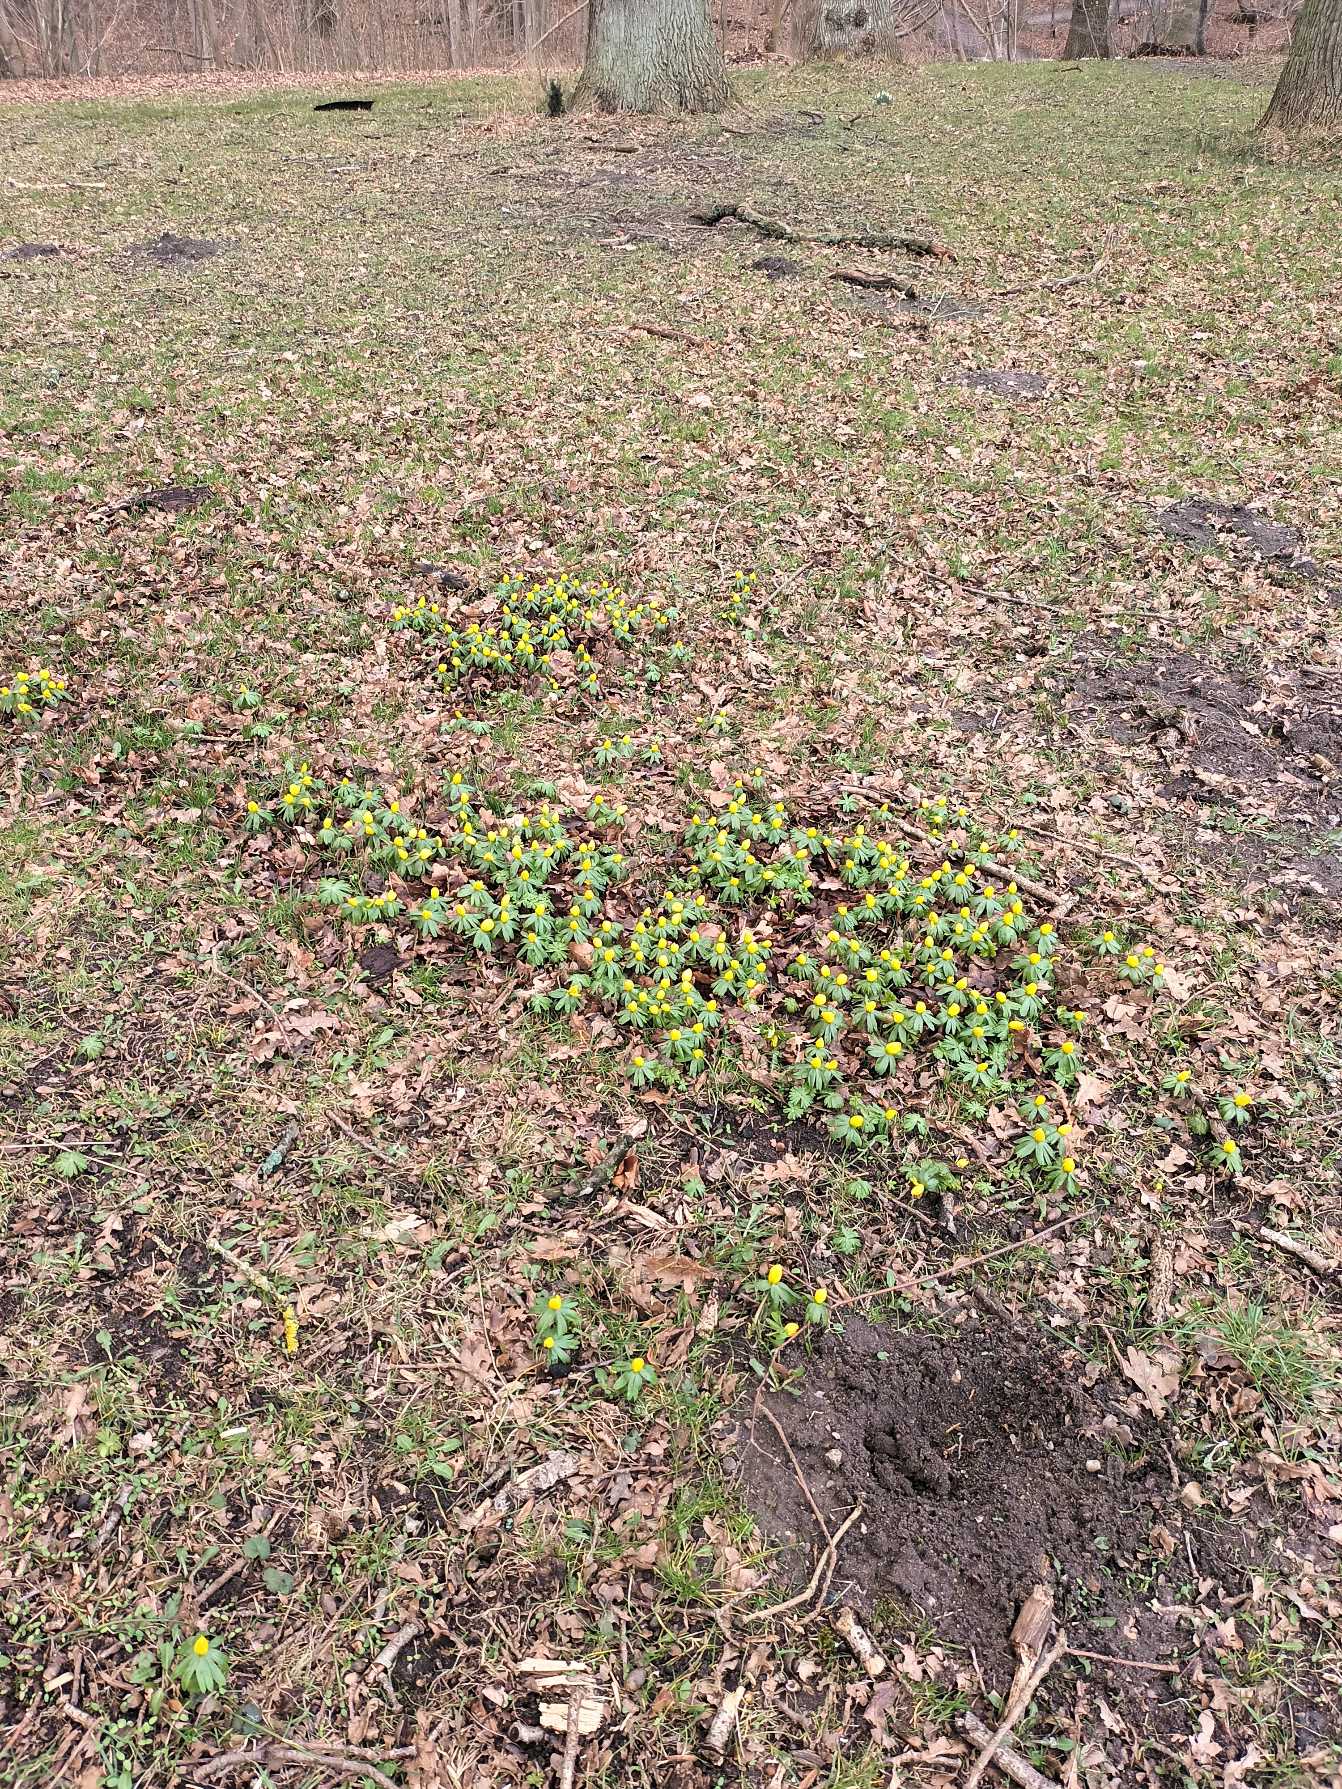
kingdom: Plantae
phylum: Tracheophyta
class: Magnoliopsida
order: Ranunculales
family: Ranunculaceae
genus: Eranthis
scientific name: Eranthis hyemalis
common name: Erantis
